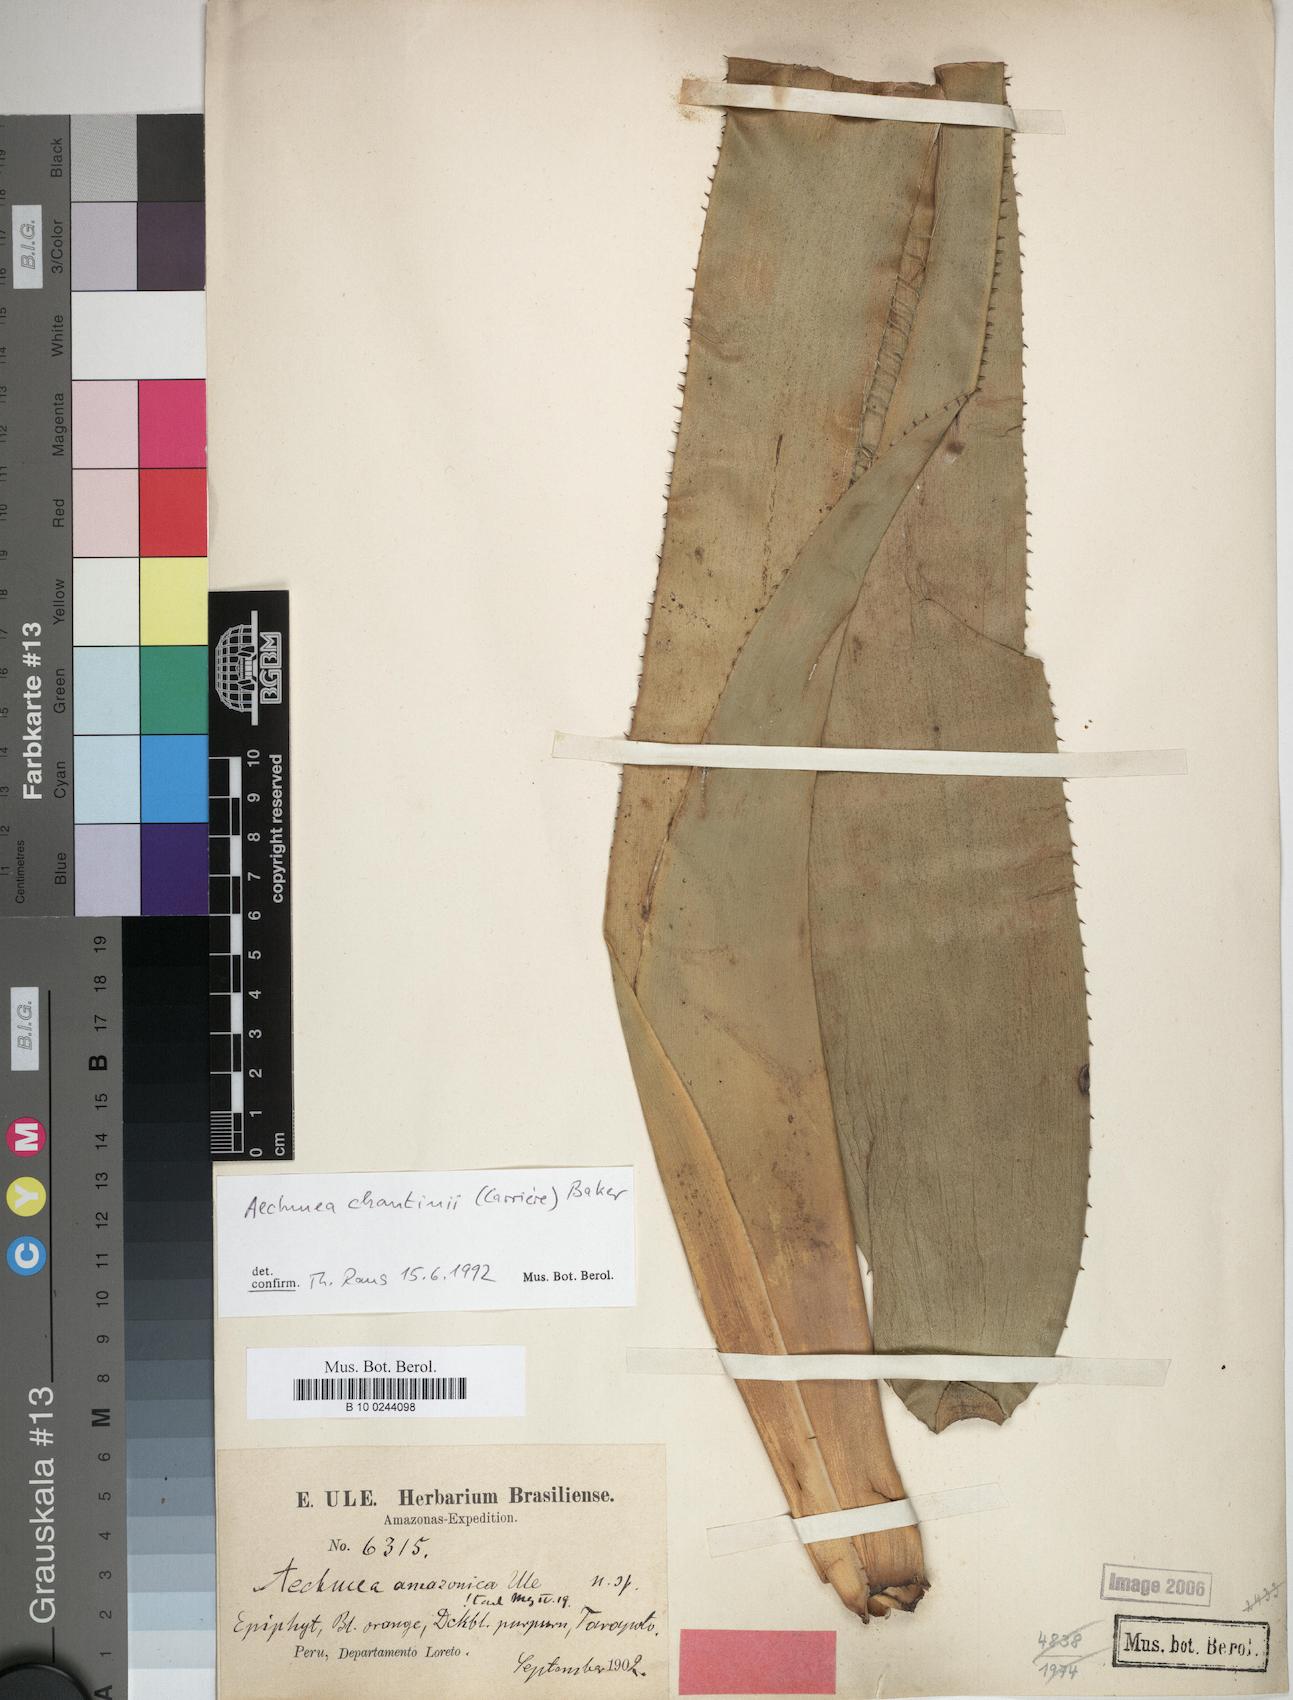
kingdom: Plantae
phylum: Tracheophyta
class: Liliopsida
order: Poales
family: Bromeliaceae
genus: Aechmea
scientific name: Aechmea chantinii
